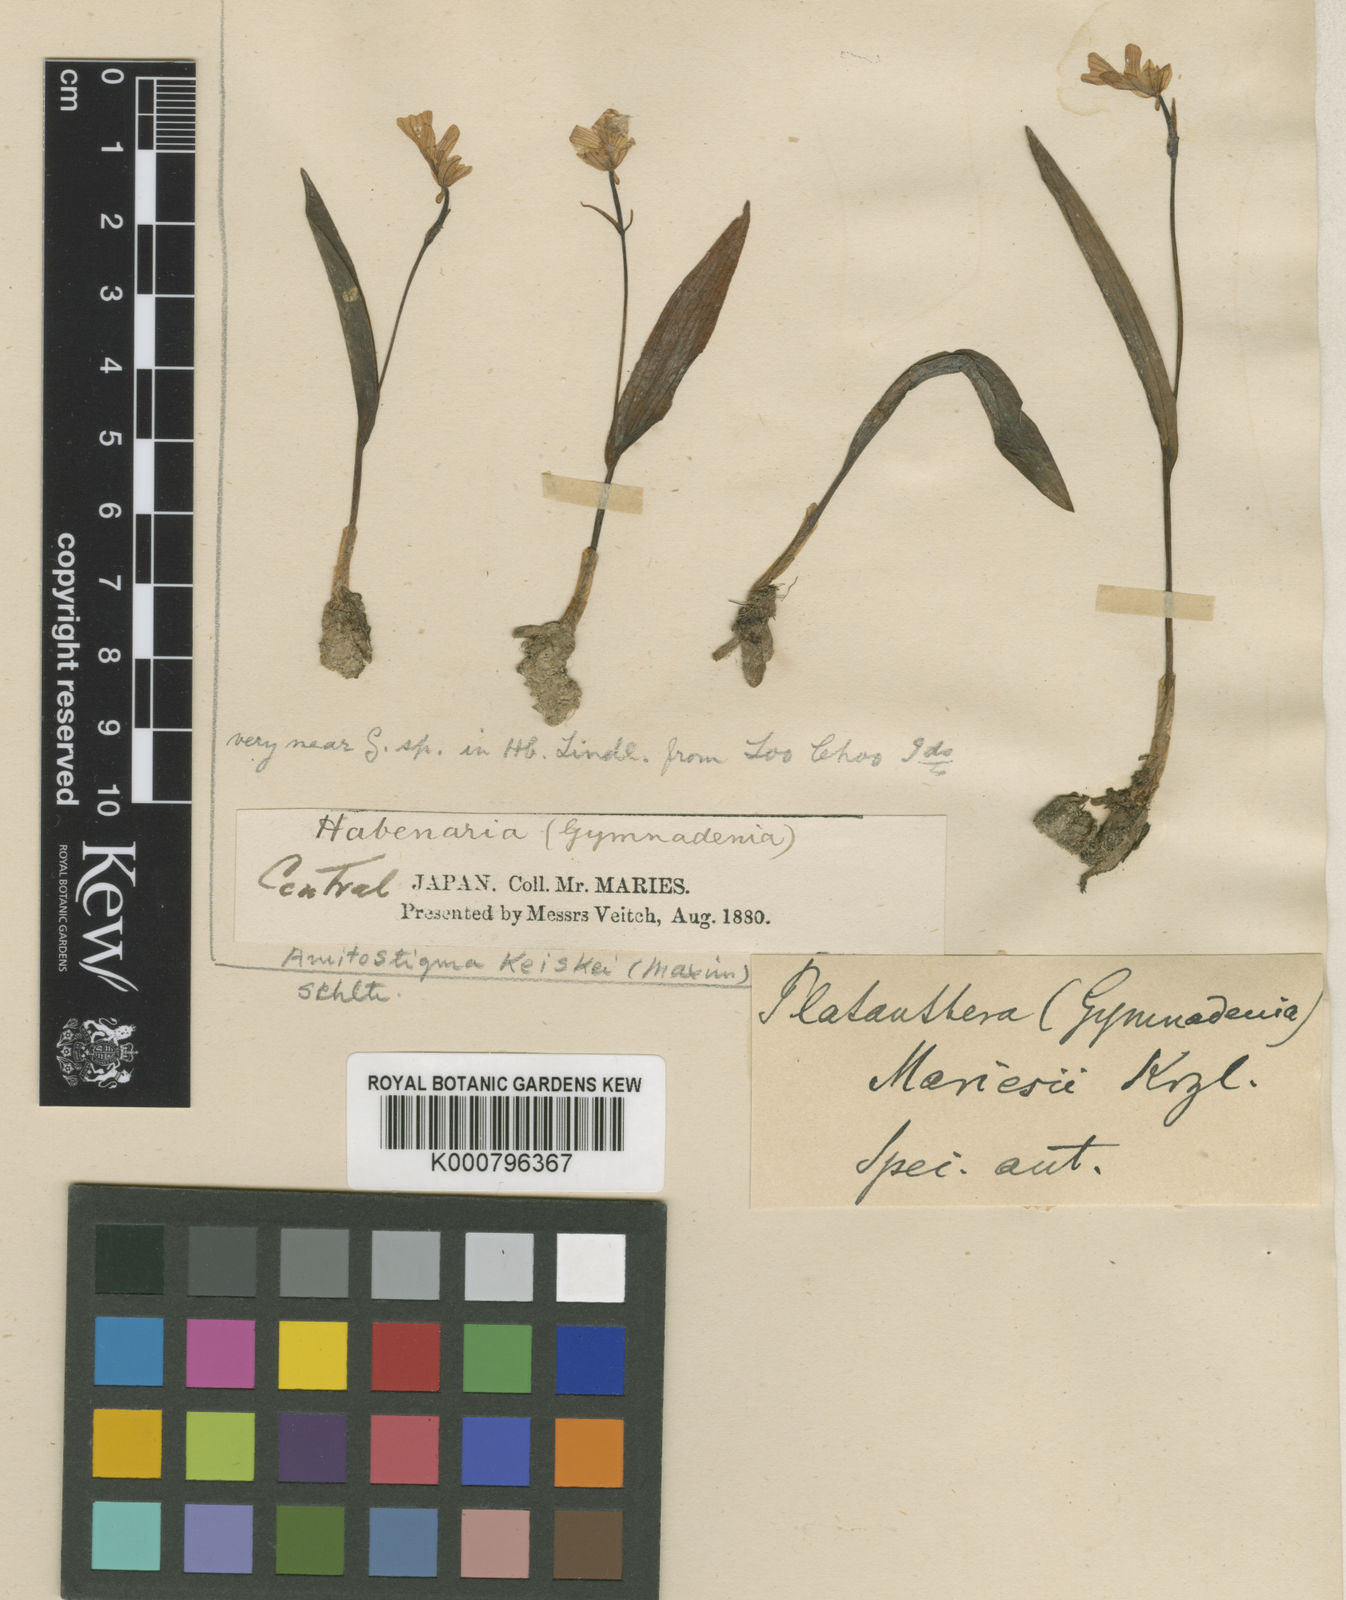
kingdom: Plantae
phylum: Tracheophyta
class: Liliopsida
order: Asparagales
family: Orchidaceae
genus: Hemipilia
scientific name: Hemipilia keiskei
